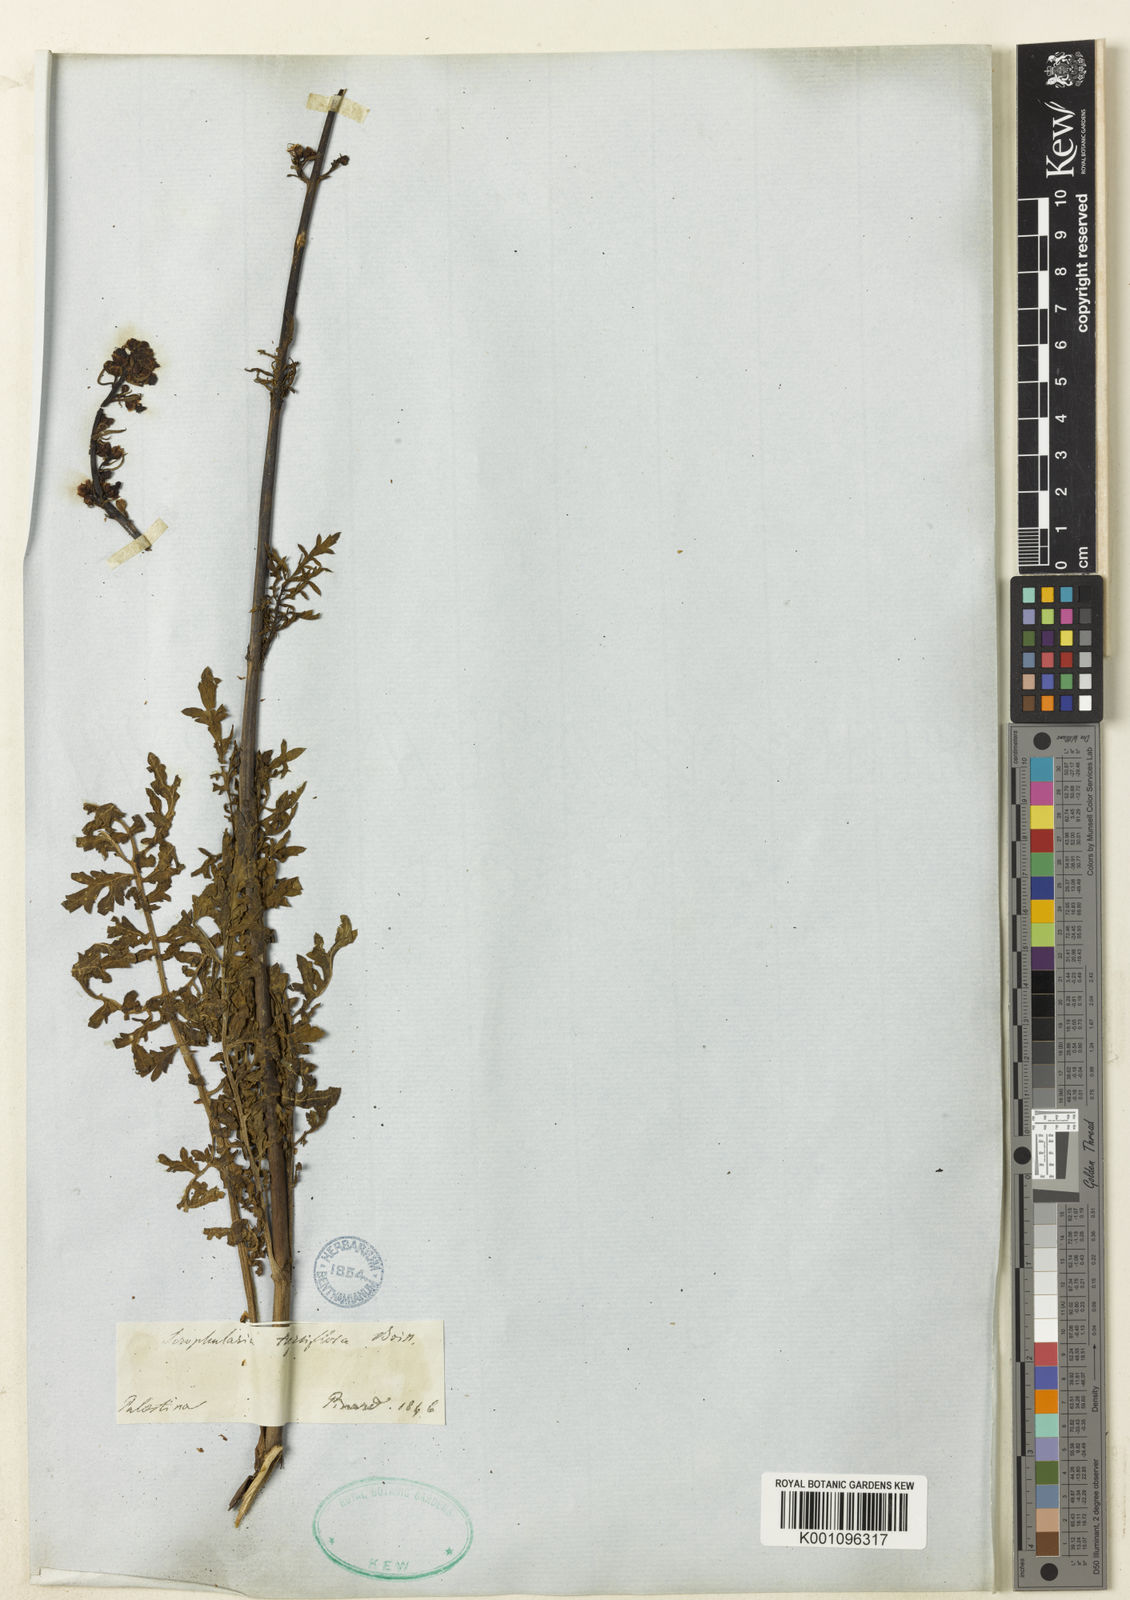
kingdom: Plantae
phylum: Tracheophyta
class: Magnoliopsida
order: Lamiales
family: Scrophulariaceae
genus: Scrophularia
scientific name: Scrophularia
